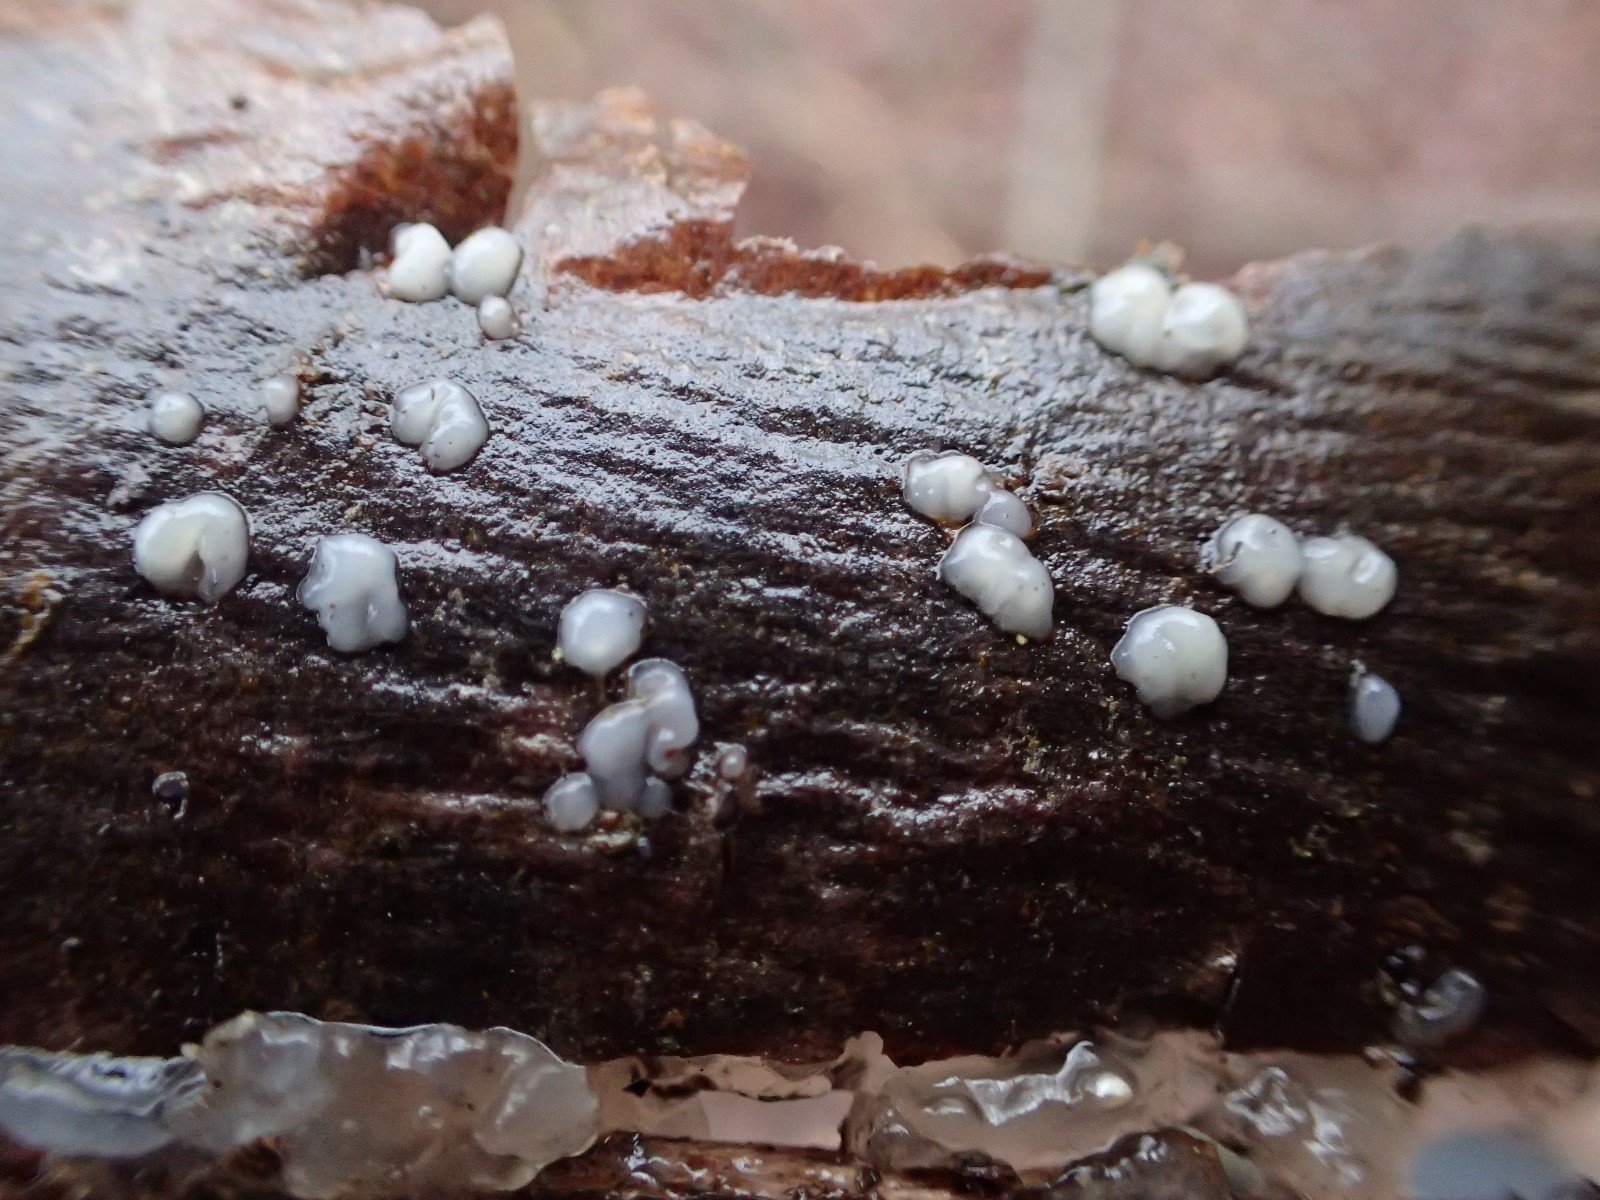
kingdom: Fungi
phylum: Basidiomycota
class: Tremellomycetes
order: Tremellales
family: Exidiaceae
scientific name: Exidiaceae
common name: bævretopfamilien
